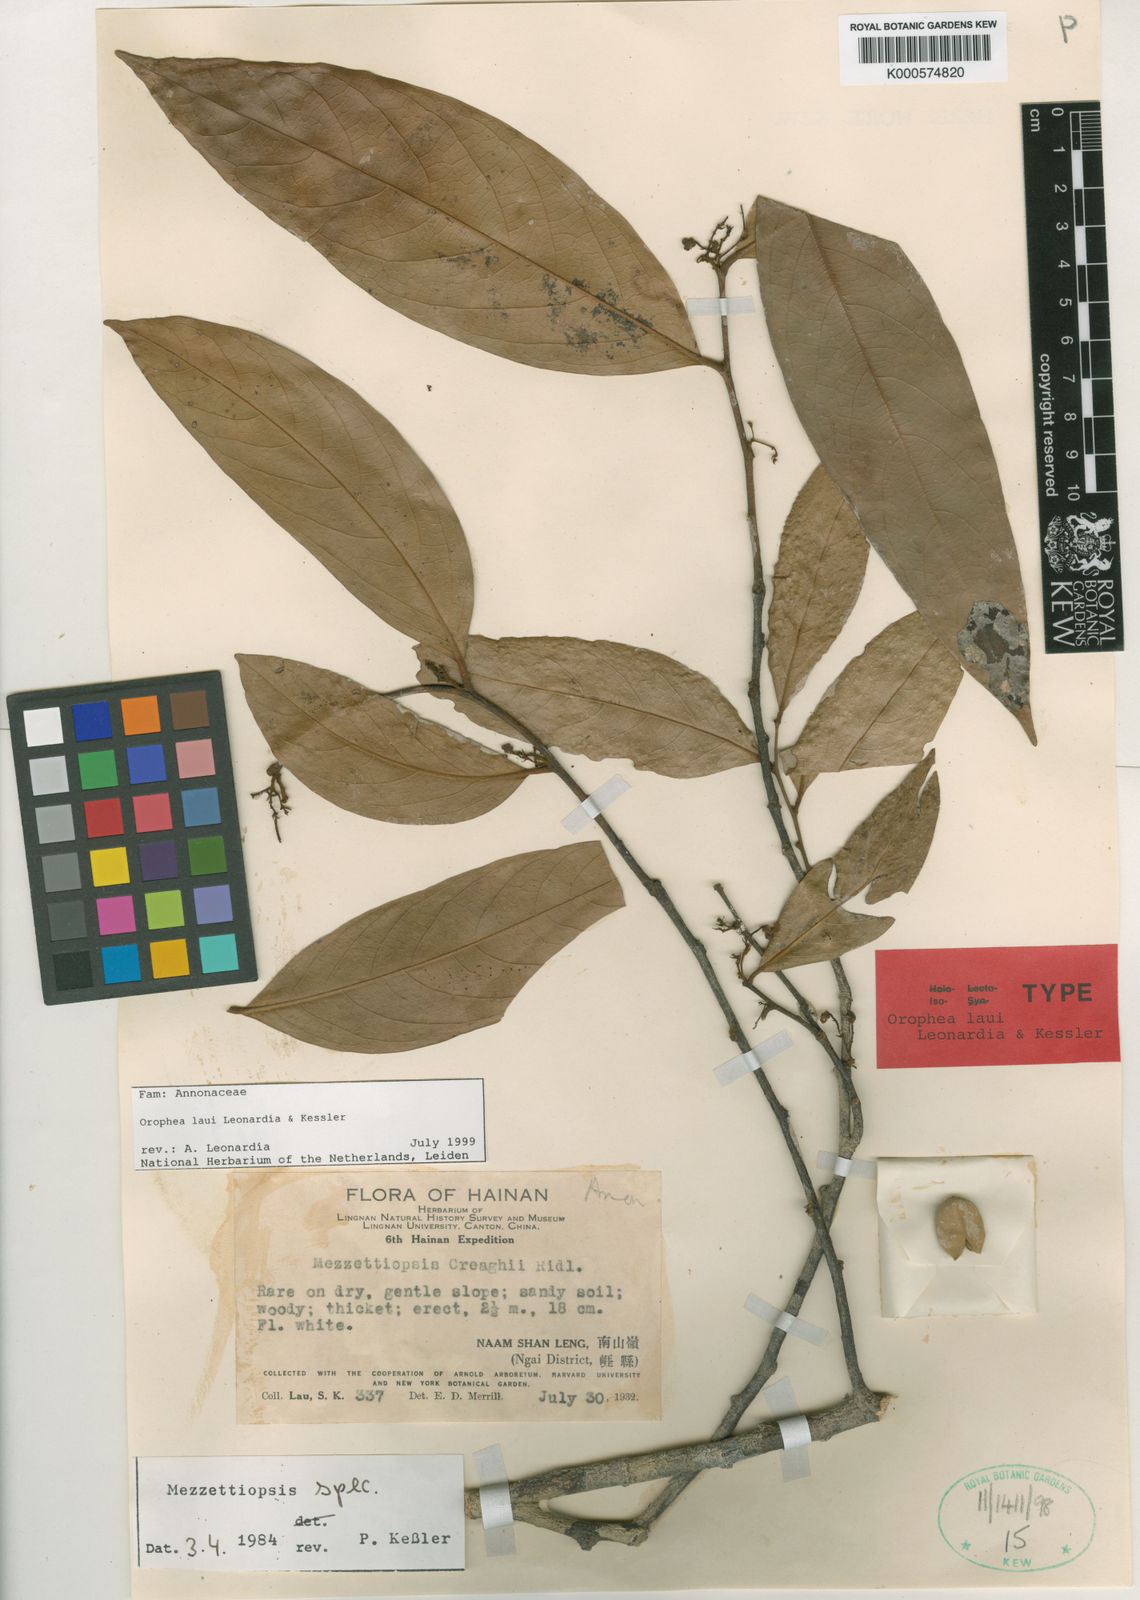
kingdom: Plantae
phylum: Tracheophyta
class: Magnoliopsida
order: Magnoliales
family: Annonaceae
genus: Orophea
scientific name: Orophea
